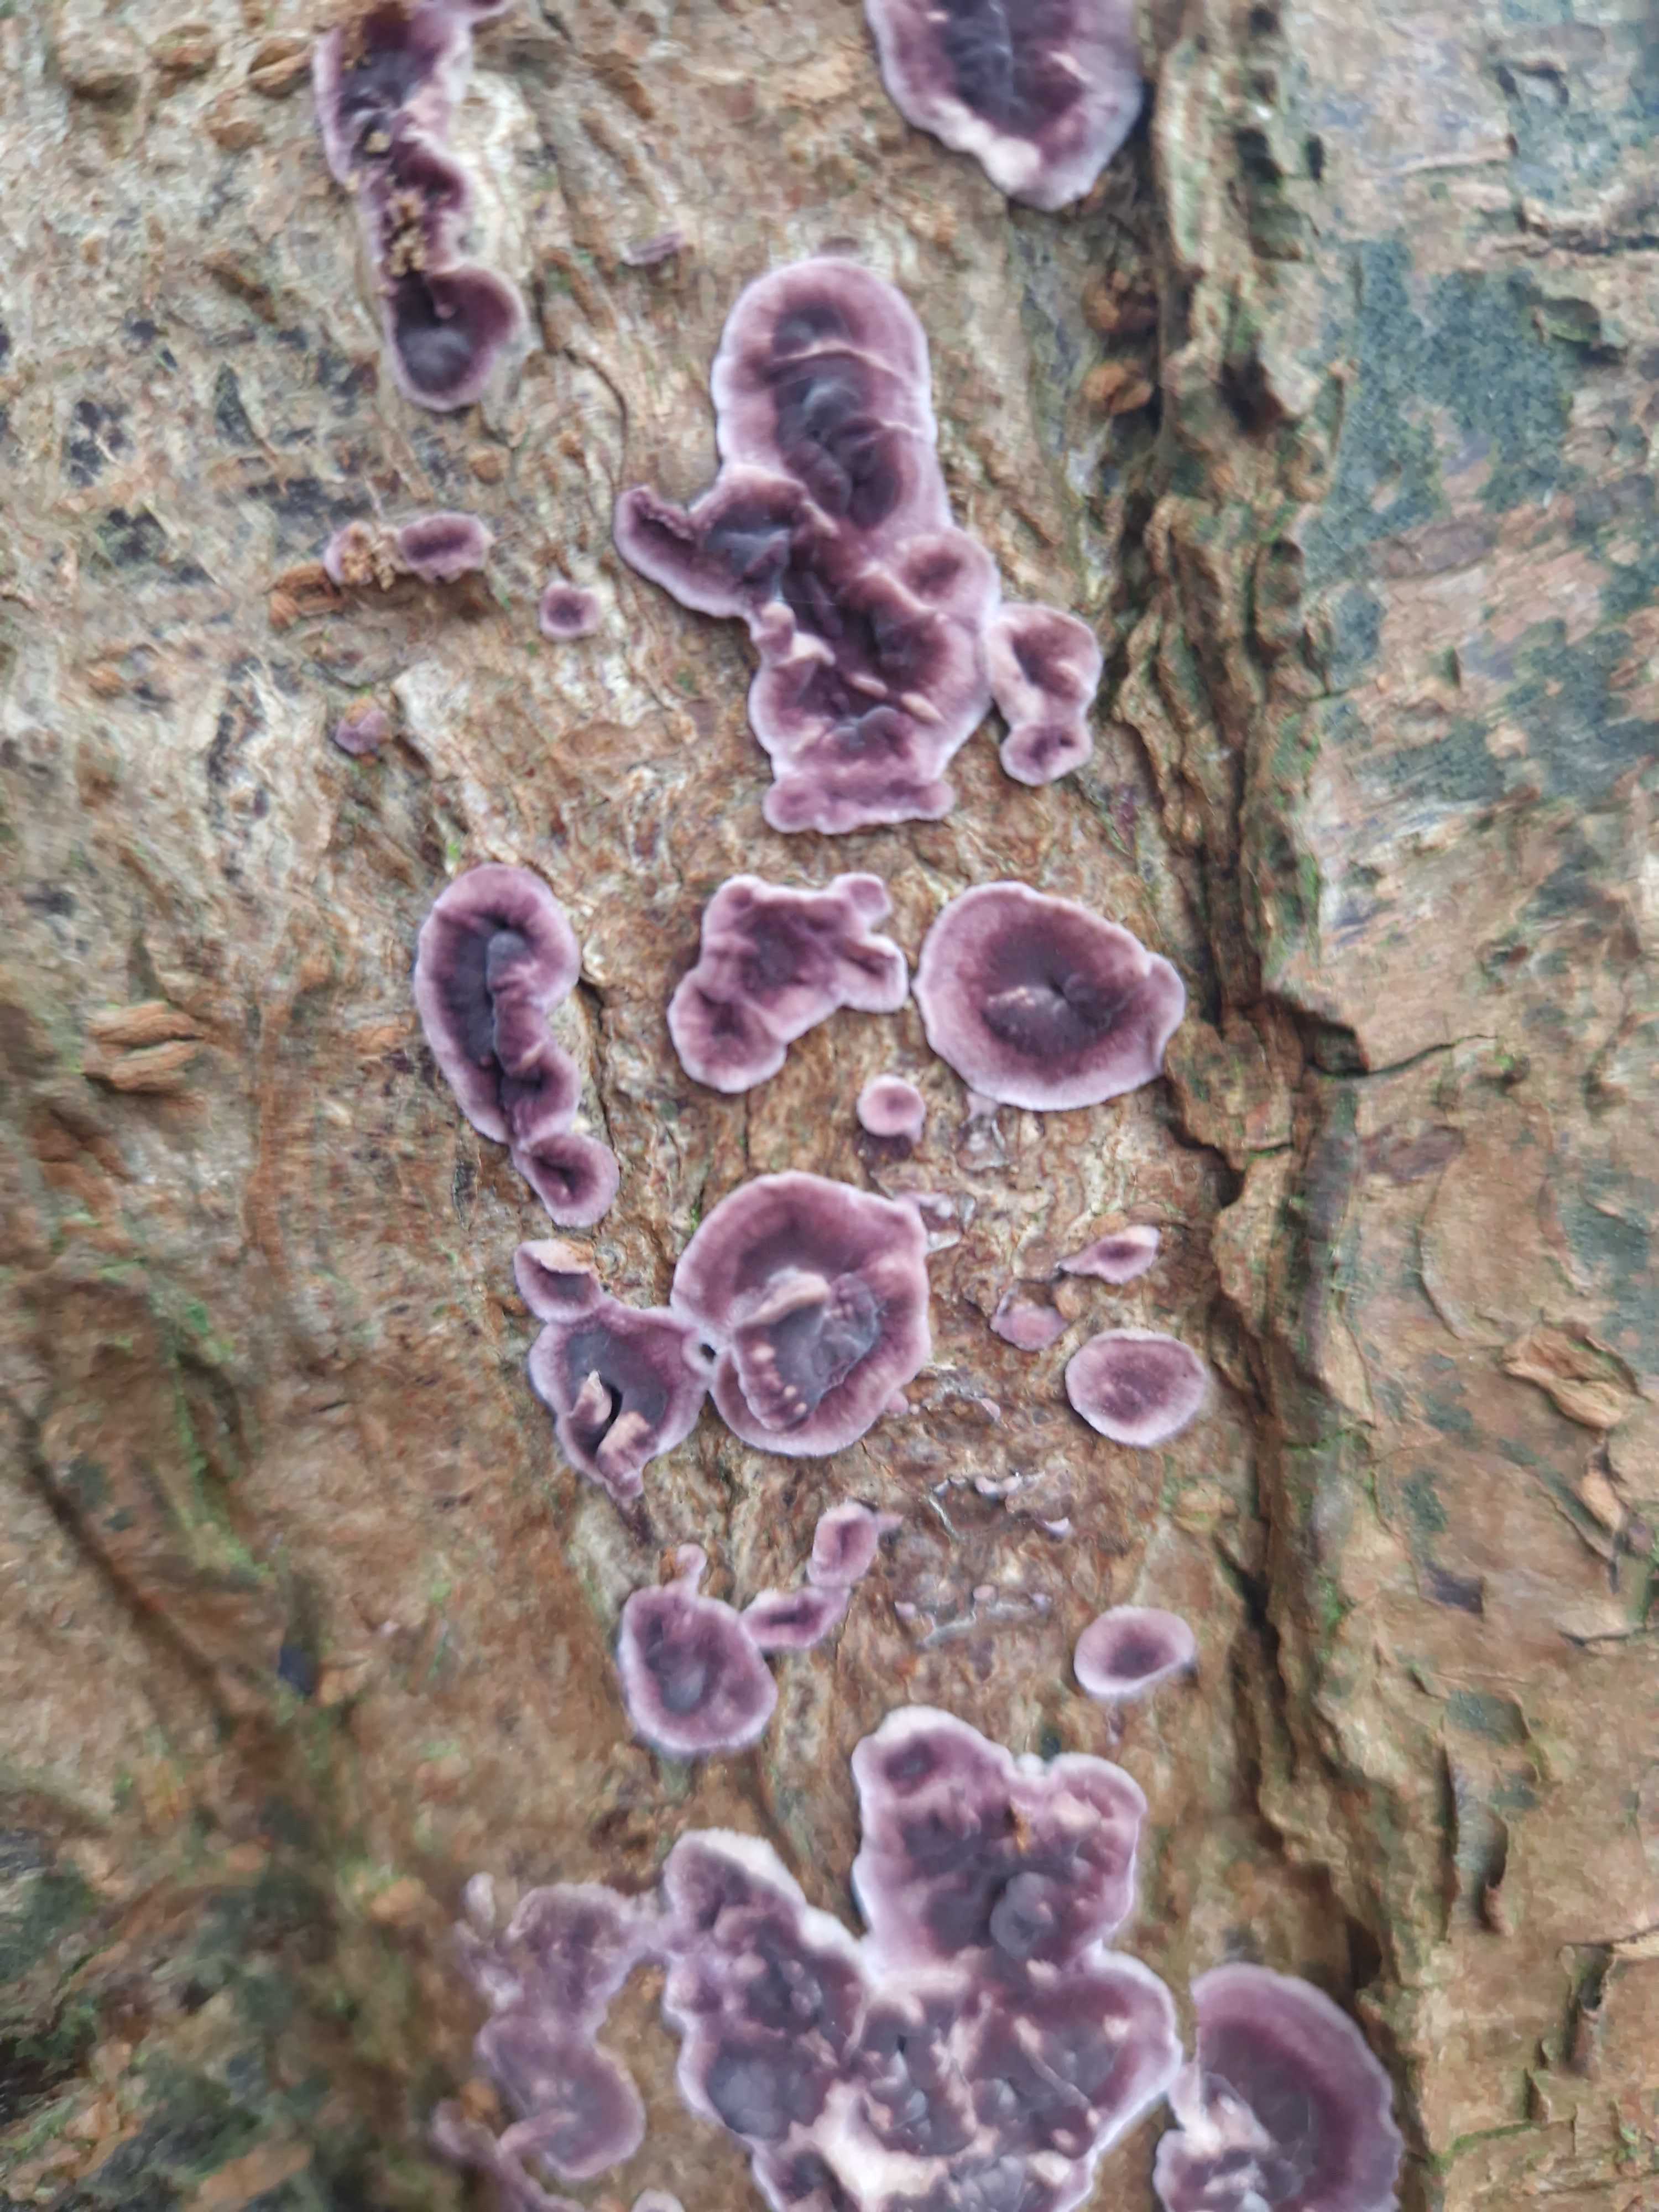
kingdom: Fungi
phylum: Basidiomycota
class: Agaricomycetes
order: Agaricales
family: Cyphellaceae
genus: Chondrostereum
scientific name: Chondrostereum purpureum
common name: purpurlædersvamp
